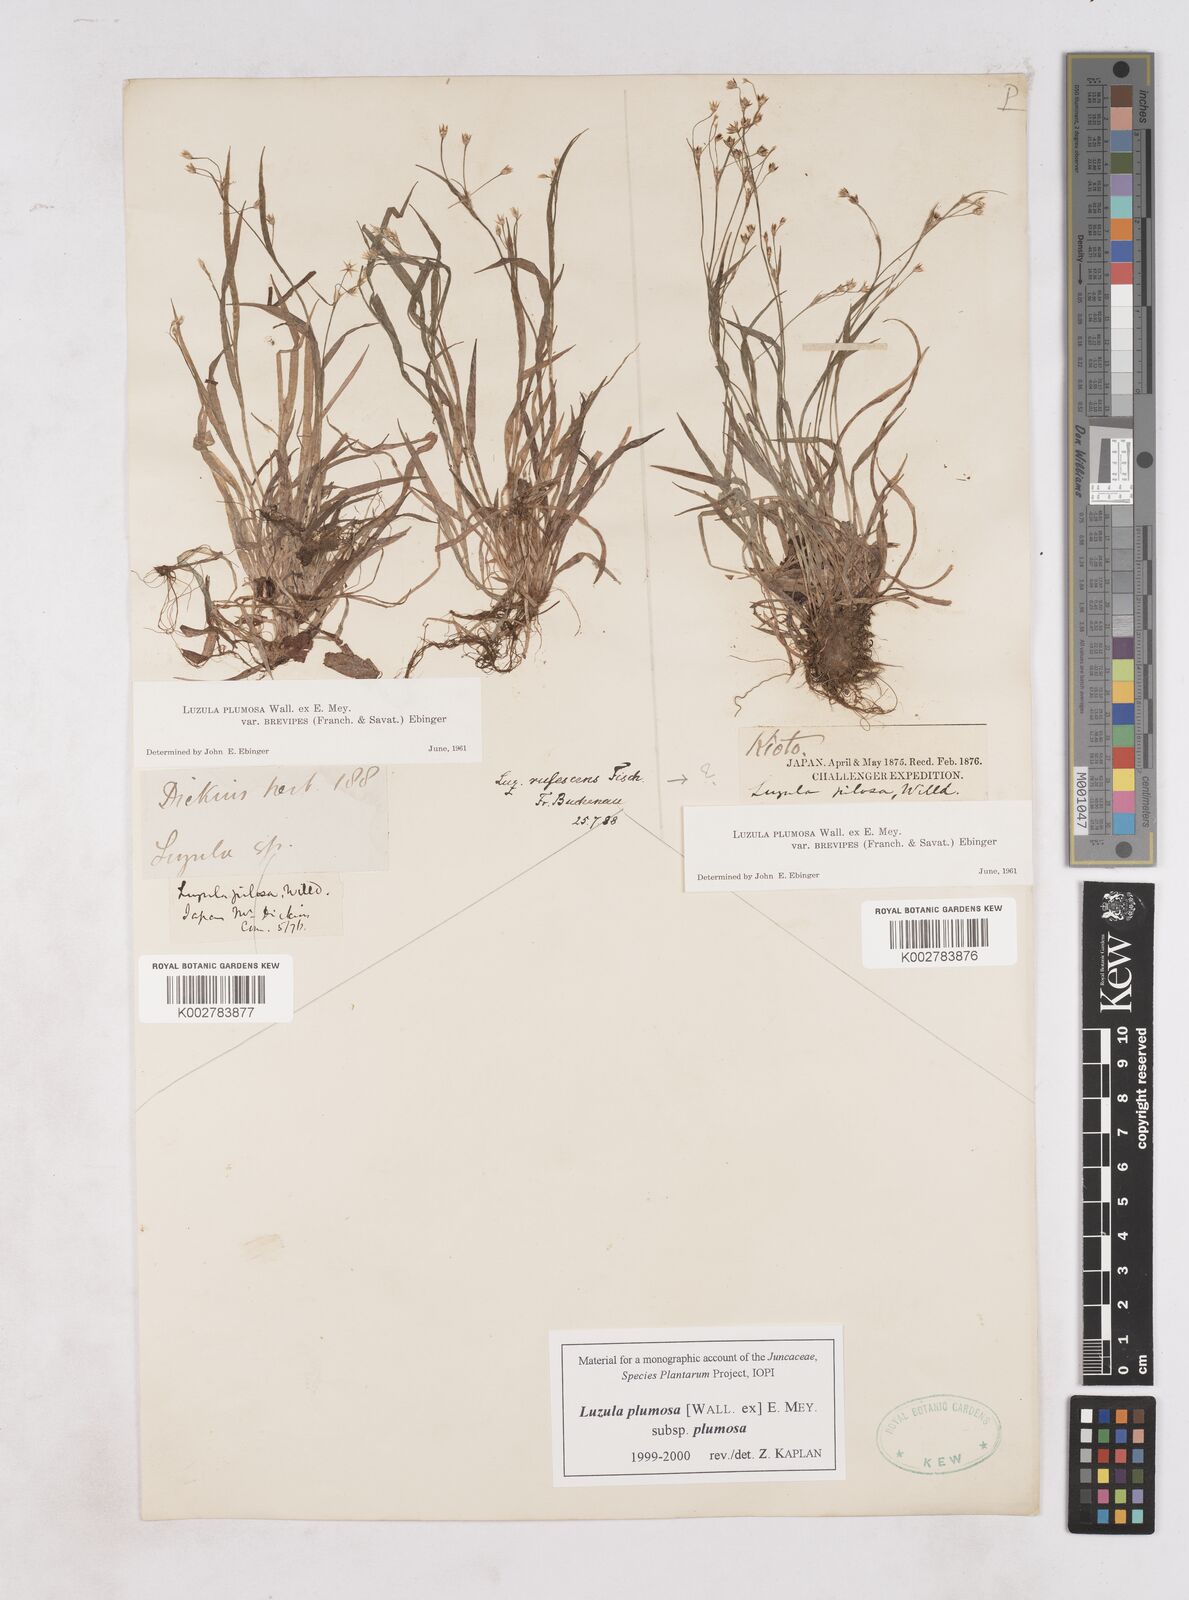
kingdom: Plantae
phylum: Tracheophyta
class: Liliopsida
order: Poales
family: Juncaceae
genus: Luzula
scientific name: Luzula plumosa
